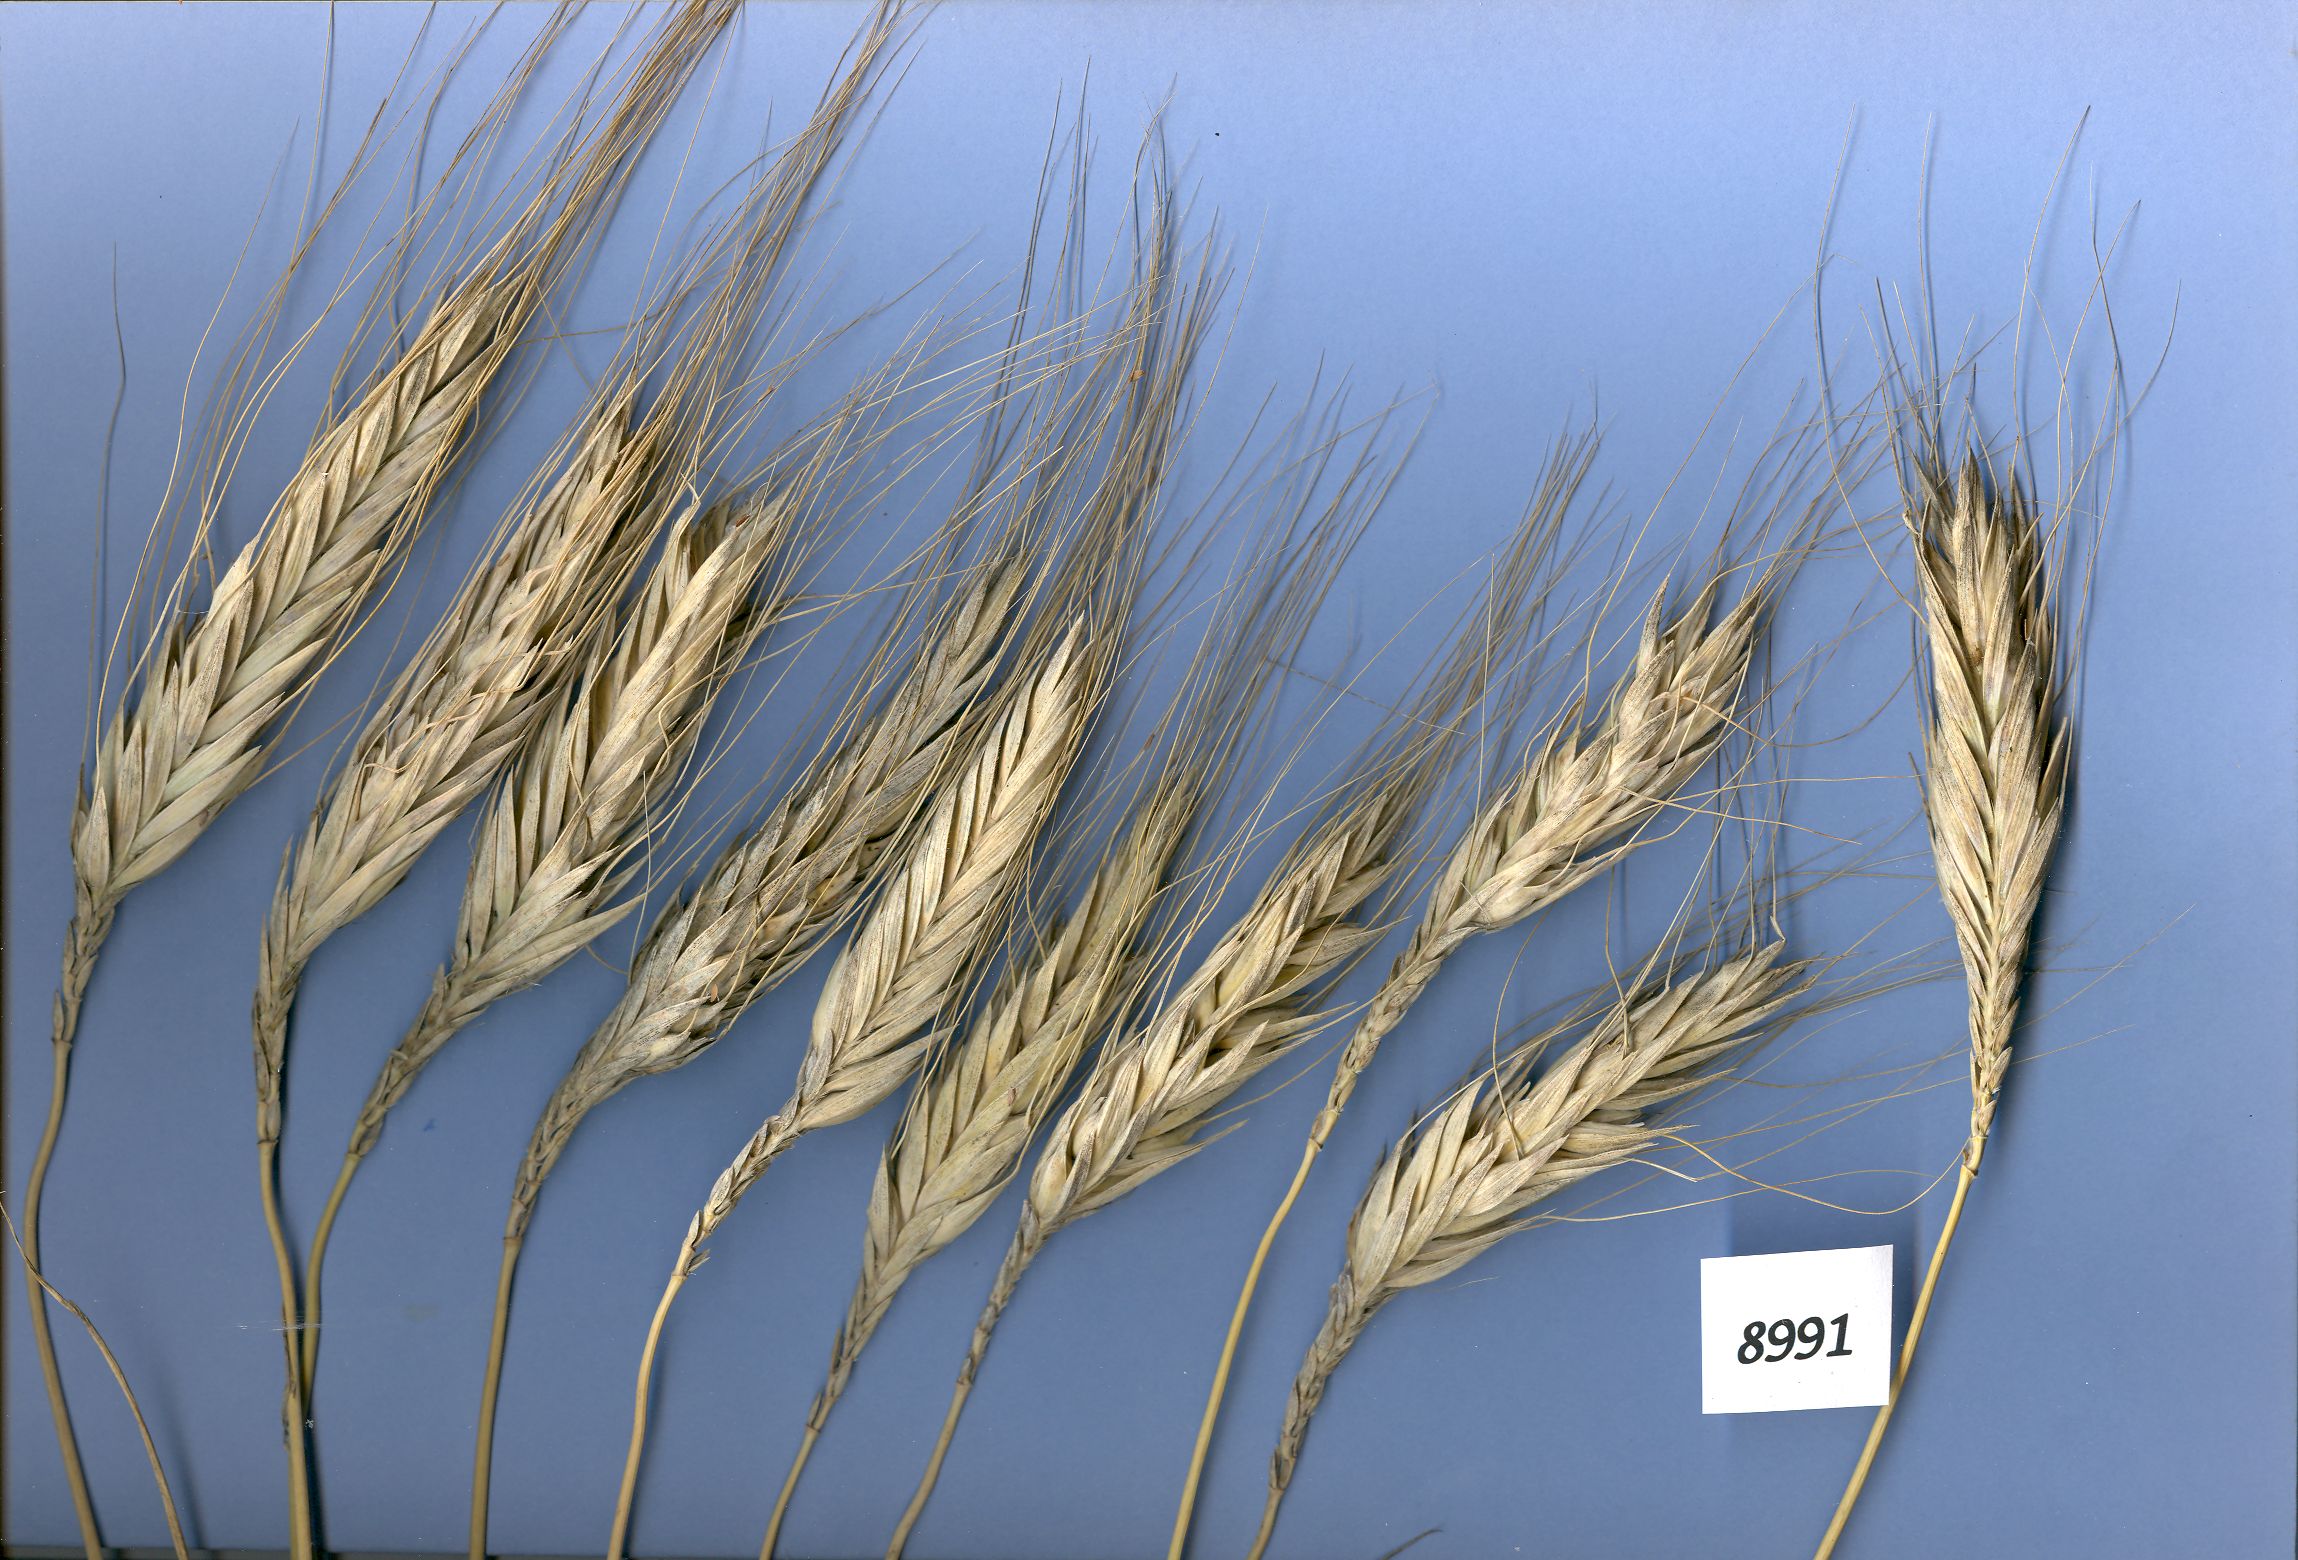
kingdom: Plantae
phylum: Tracheophyta
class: Liliopsida
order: Poales
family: Poaceae
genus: Triticum
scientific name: Triticum turgidum
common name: Rivet wheat
